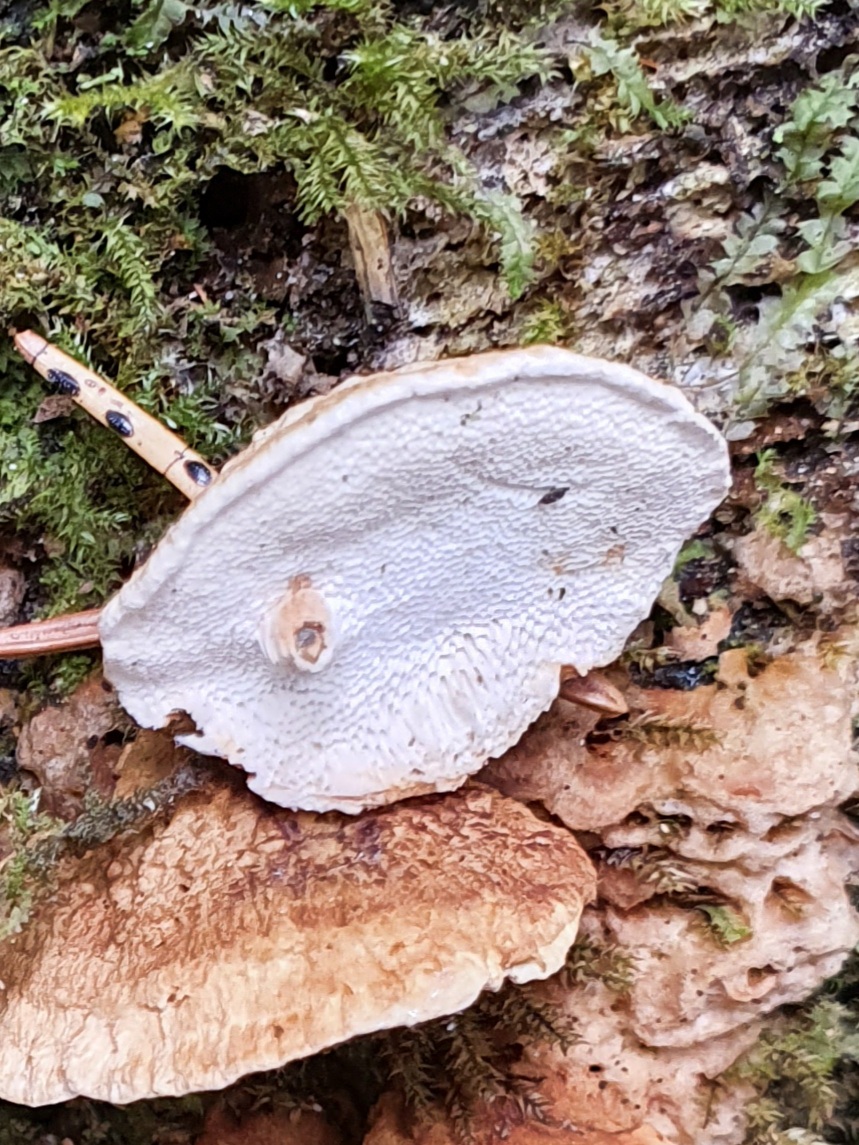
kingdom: Fungi
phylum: Basidiomycota
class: Agaricomycetes
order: Polyporales
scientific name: Polyporales
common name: poresvampordenen
